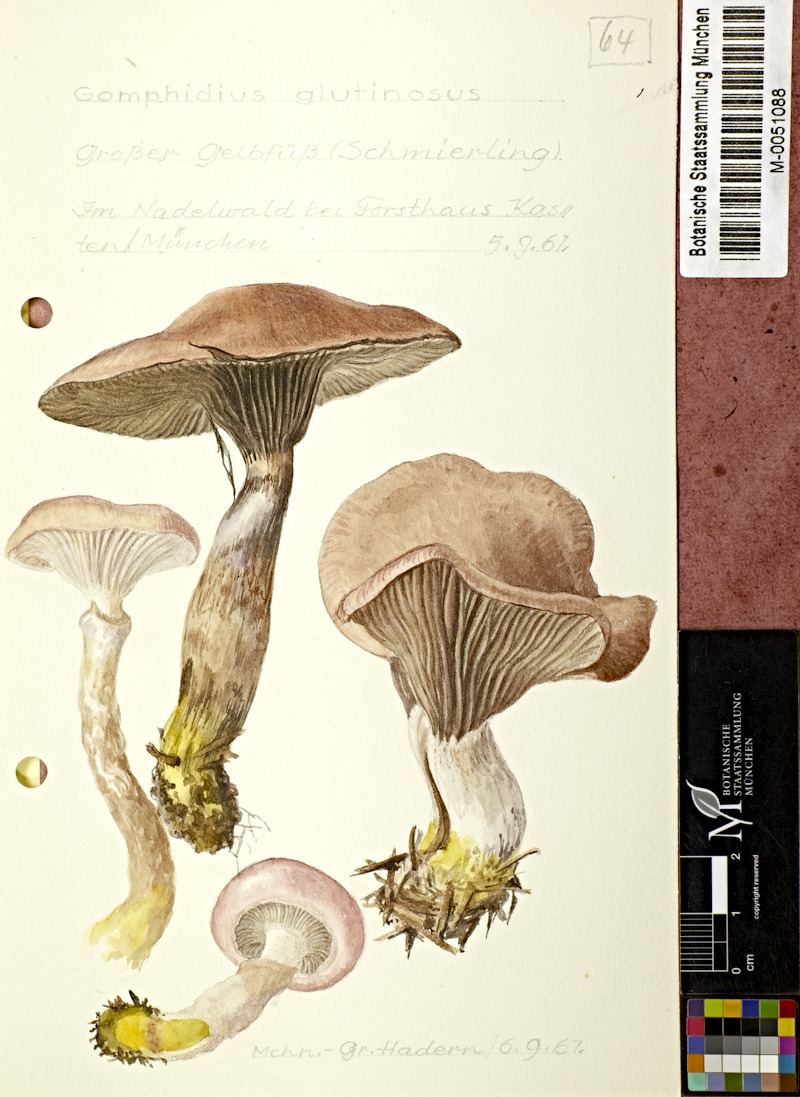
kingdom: Fungi
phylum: Basidiomycota
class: Agaricomycetes
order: Boletales
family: Gomphidiaceae
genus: Gomphidius
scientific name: Gomphidius glutinosus
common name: Slimy spike
